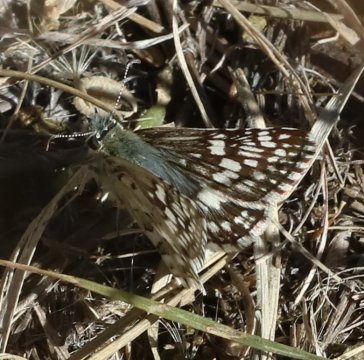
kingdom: Animalia
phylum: Arthropoda
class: Insecta
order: Lepidoptera
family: Hesperiidae
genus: Pyrgus
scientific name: Pyrgus communis
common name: Common Checkered-Skipper
